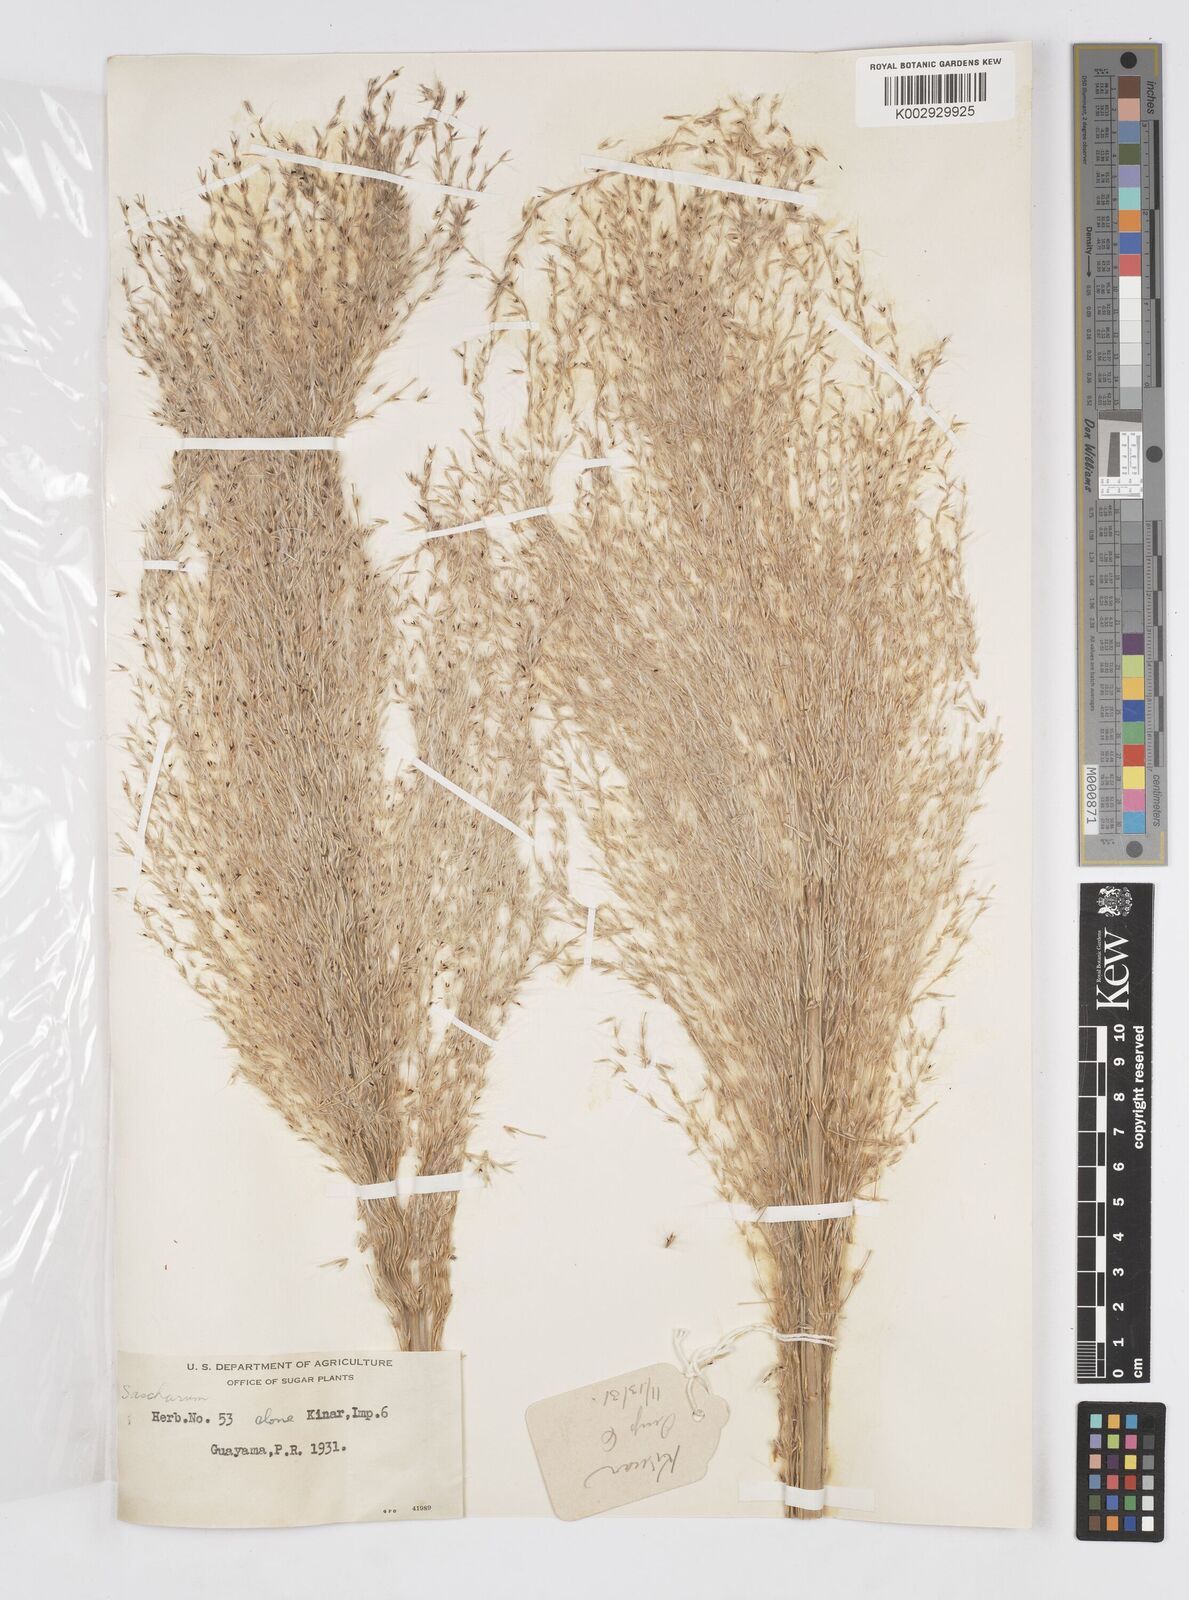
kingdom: Plantae
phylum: Tracheophyta
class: Liliopsida
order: Poales
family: Poaceae
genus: Saccharum
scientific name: Saccharum officinarum
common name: Sugarcane
